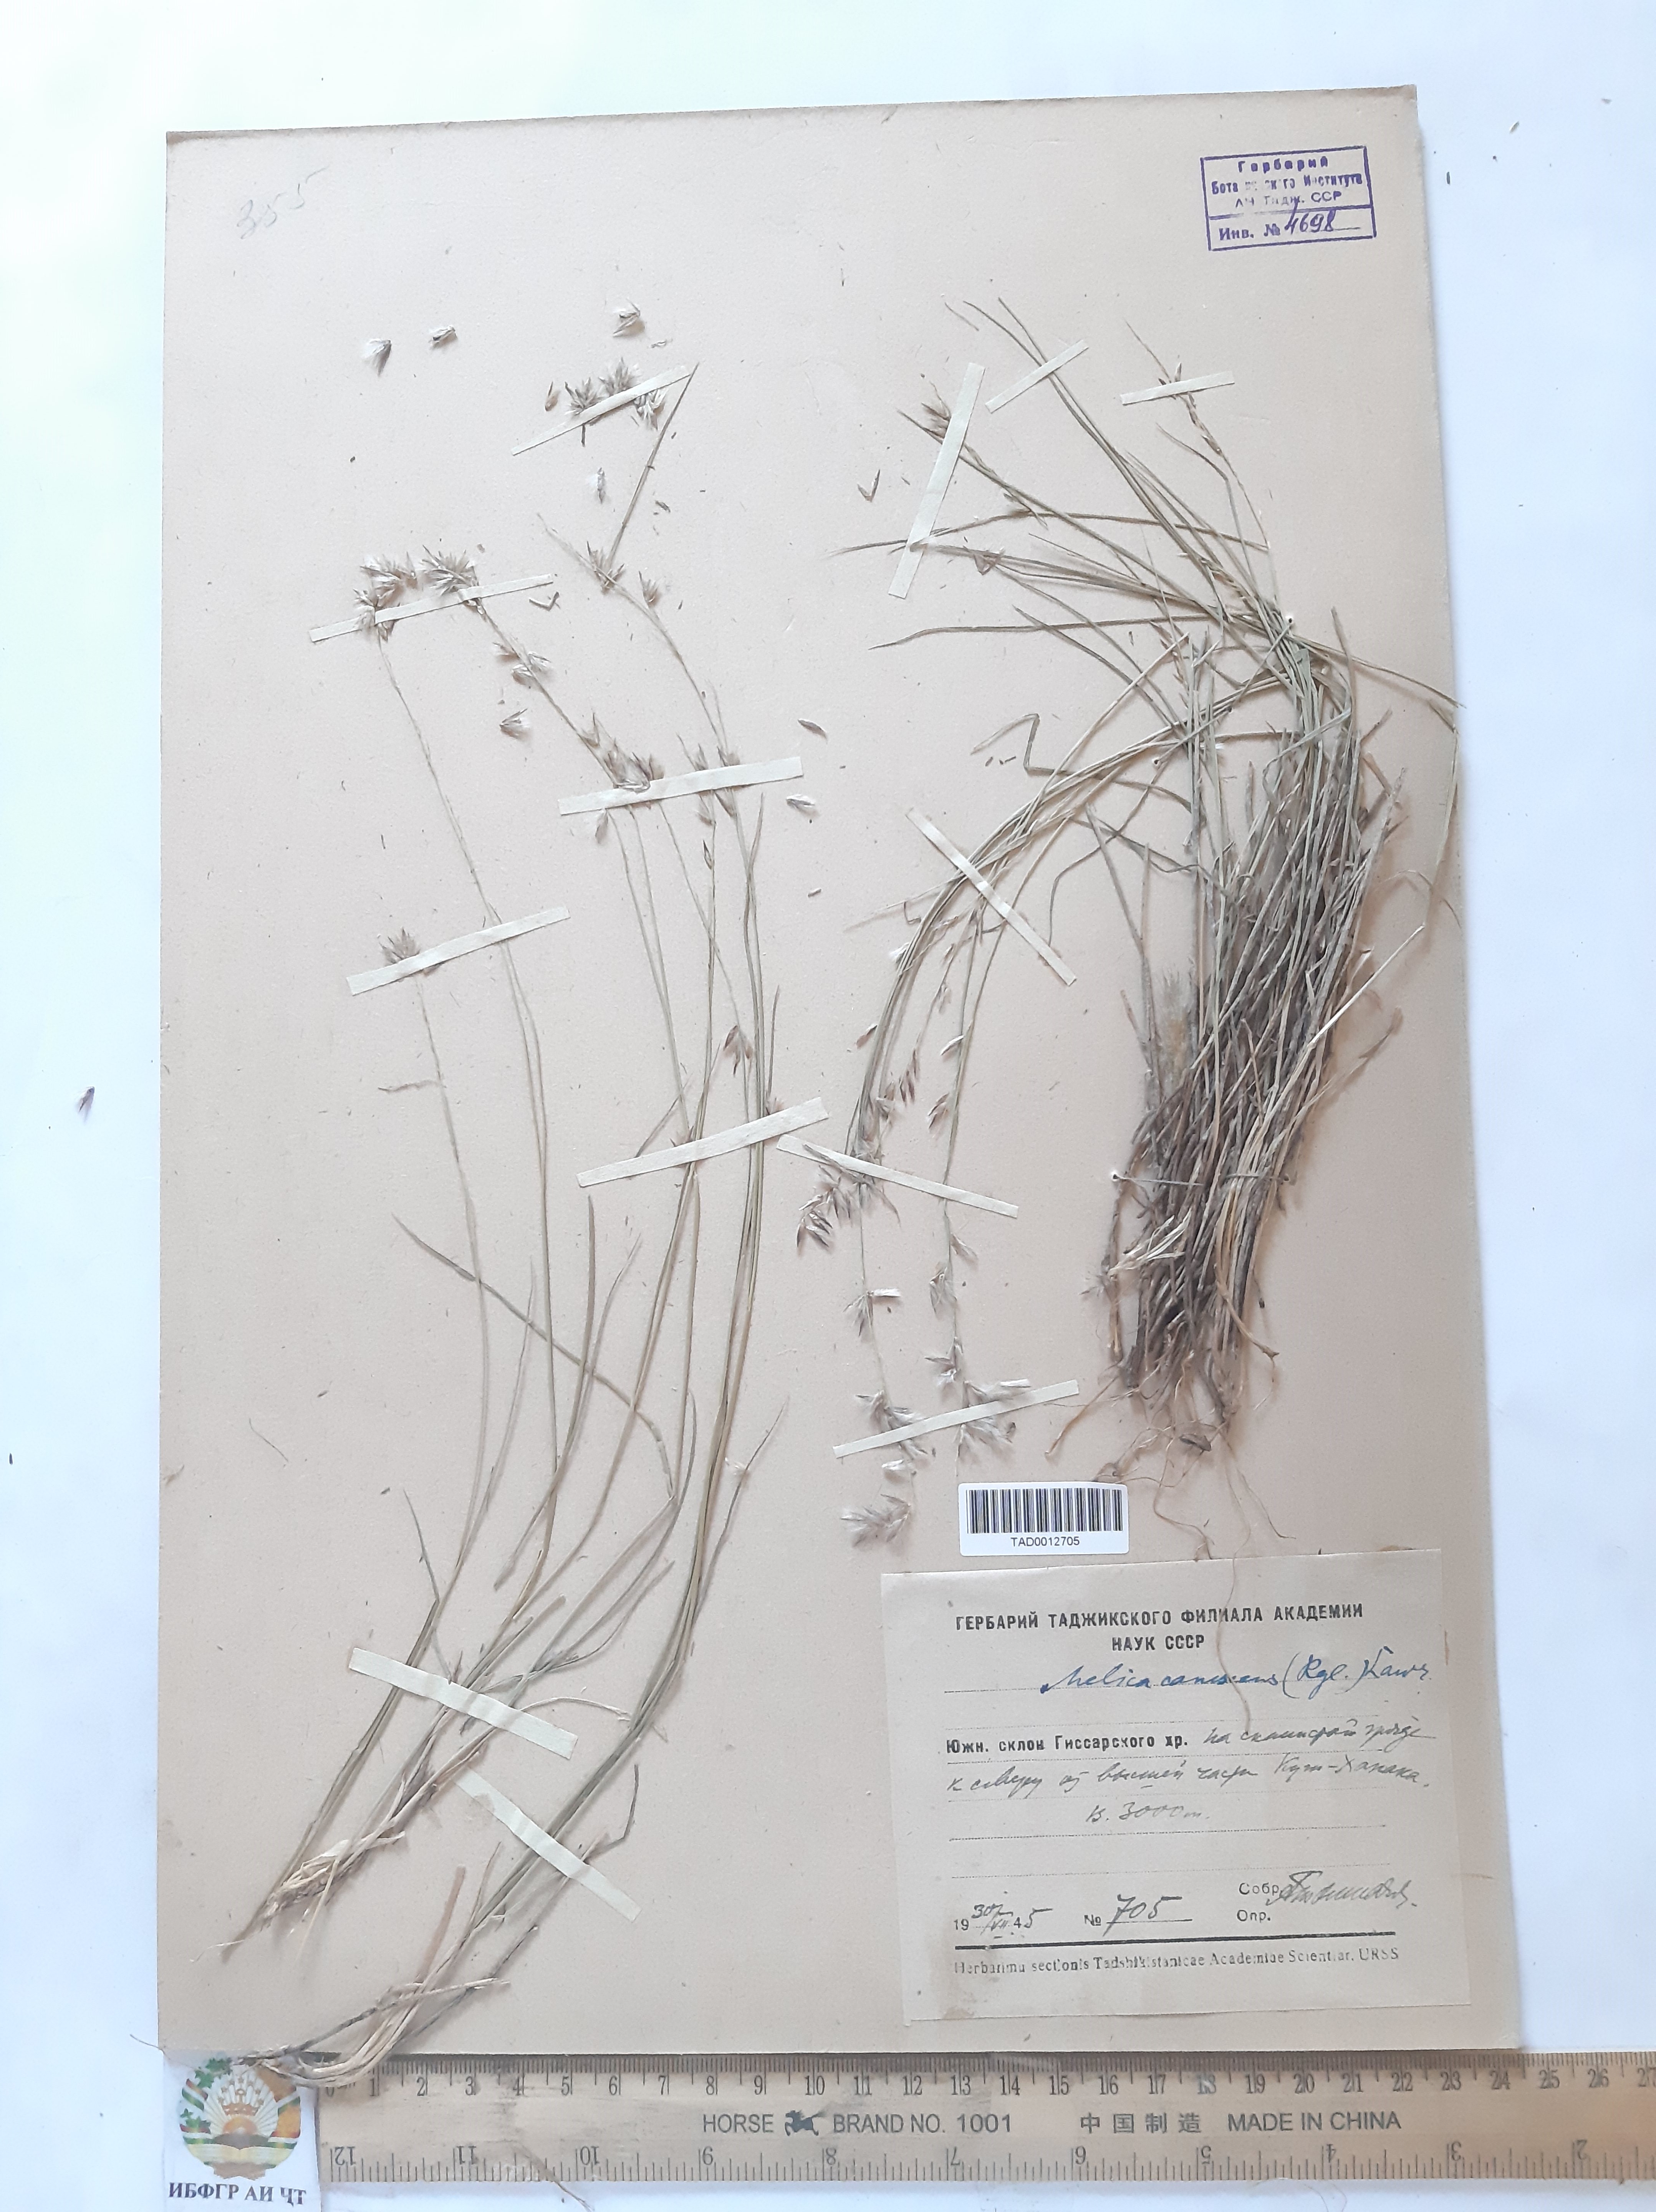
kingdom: Plantae
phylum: Tracheophyta
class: Liliopsida
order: Poales
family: Poaceae
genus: Melica
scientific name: Melica persica
